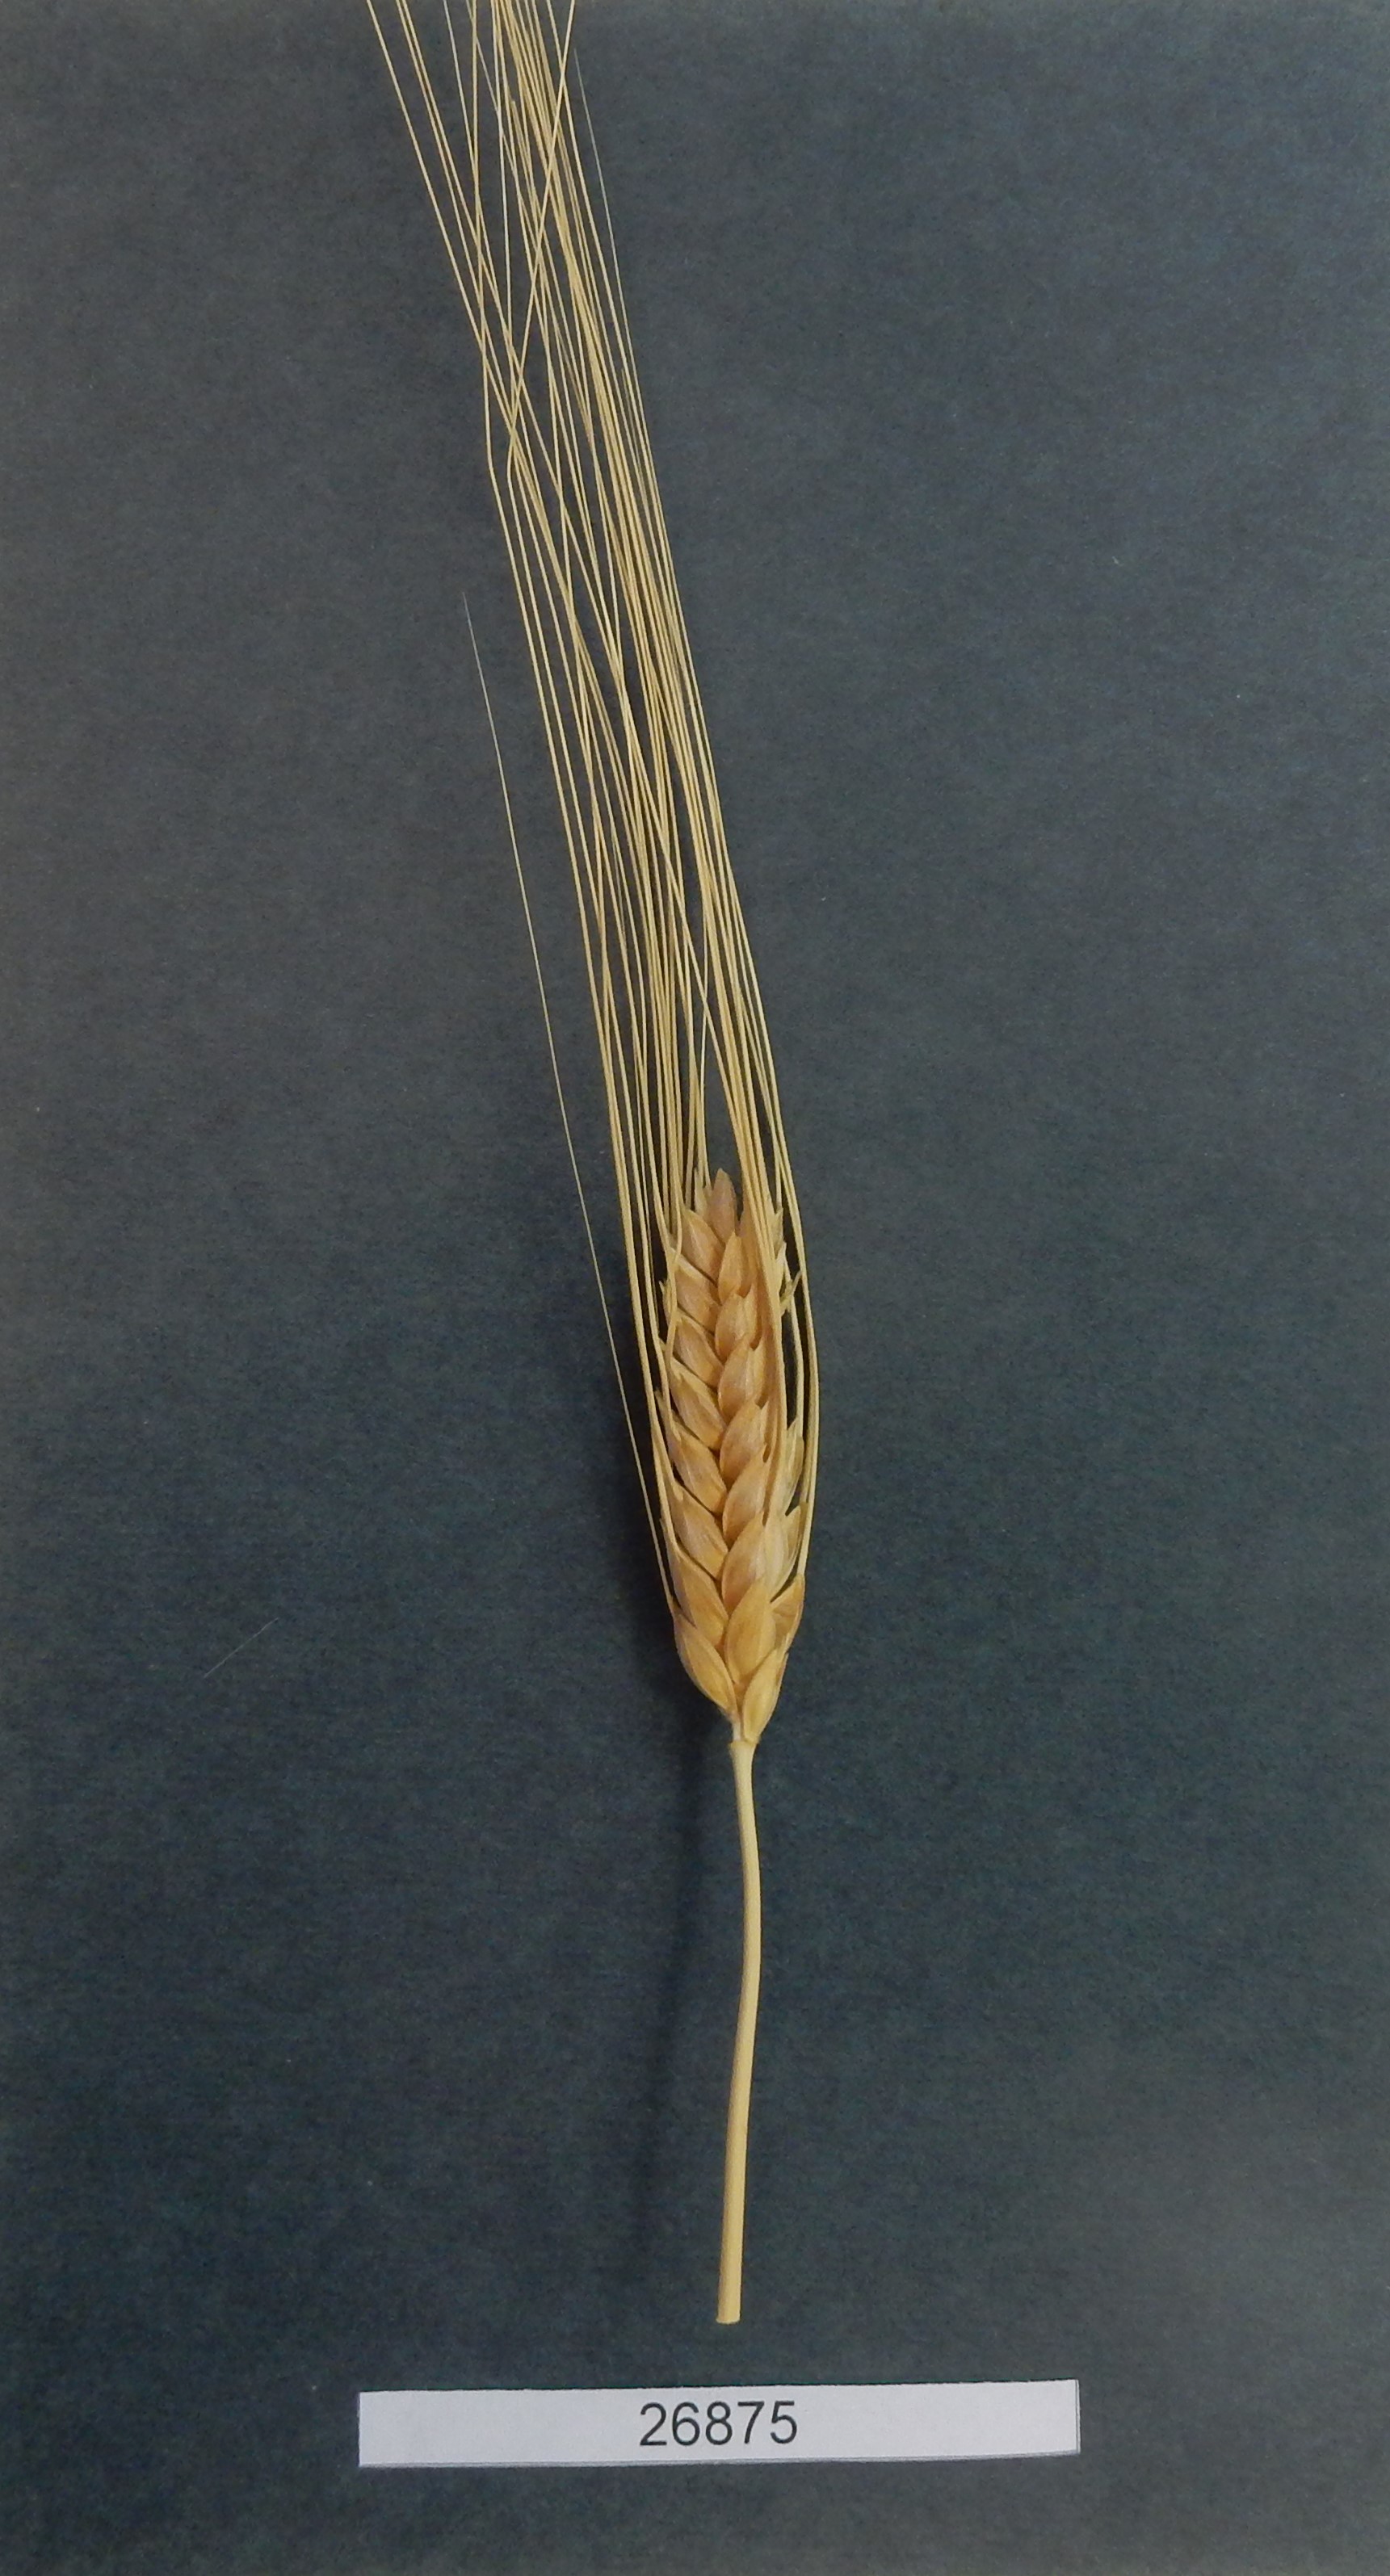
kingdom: Plantae
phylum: Tracheophyta
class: Liliopsida
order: Poales
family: Poaceae
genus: Triticum
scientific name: Triticum
